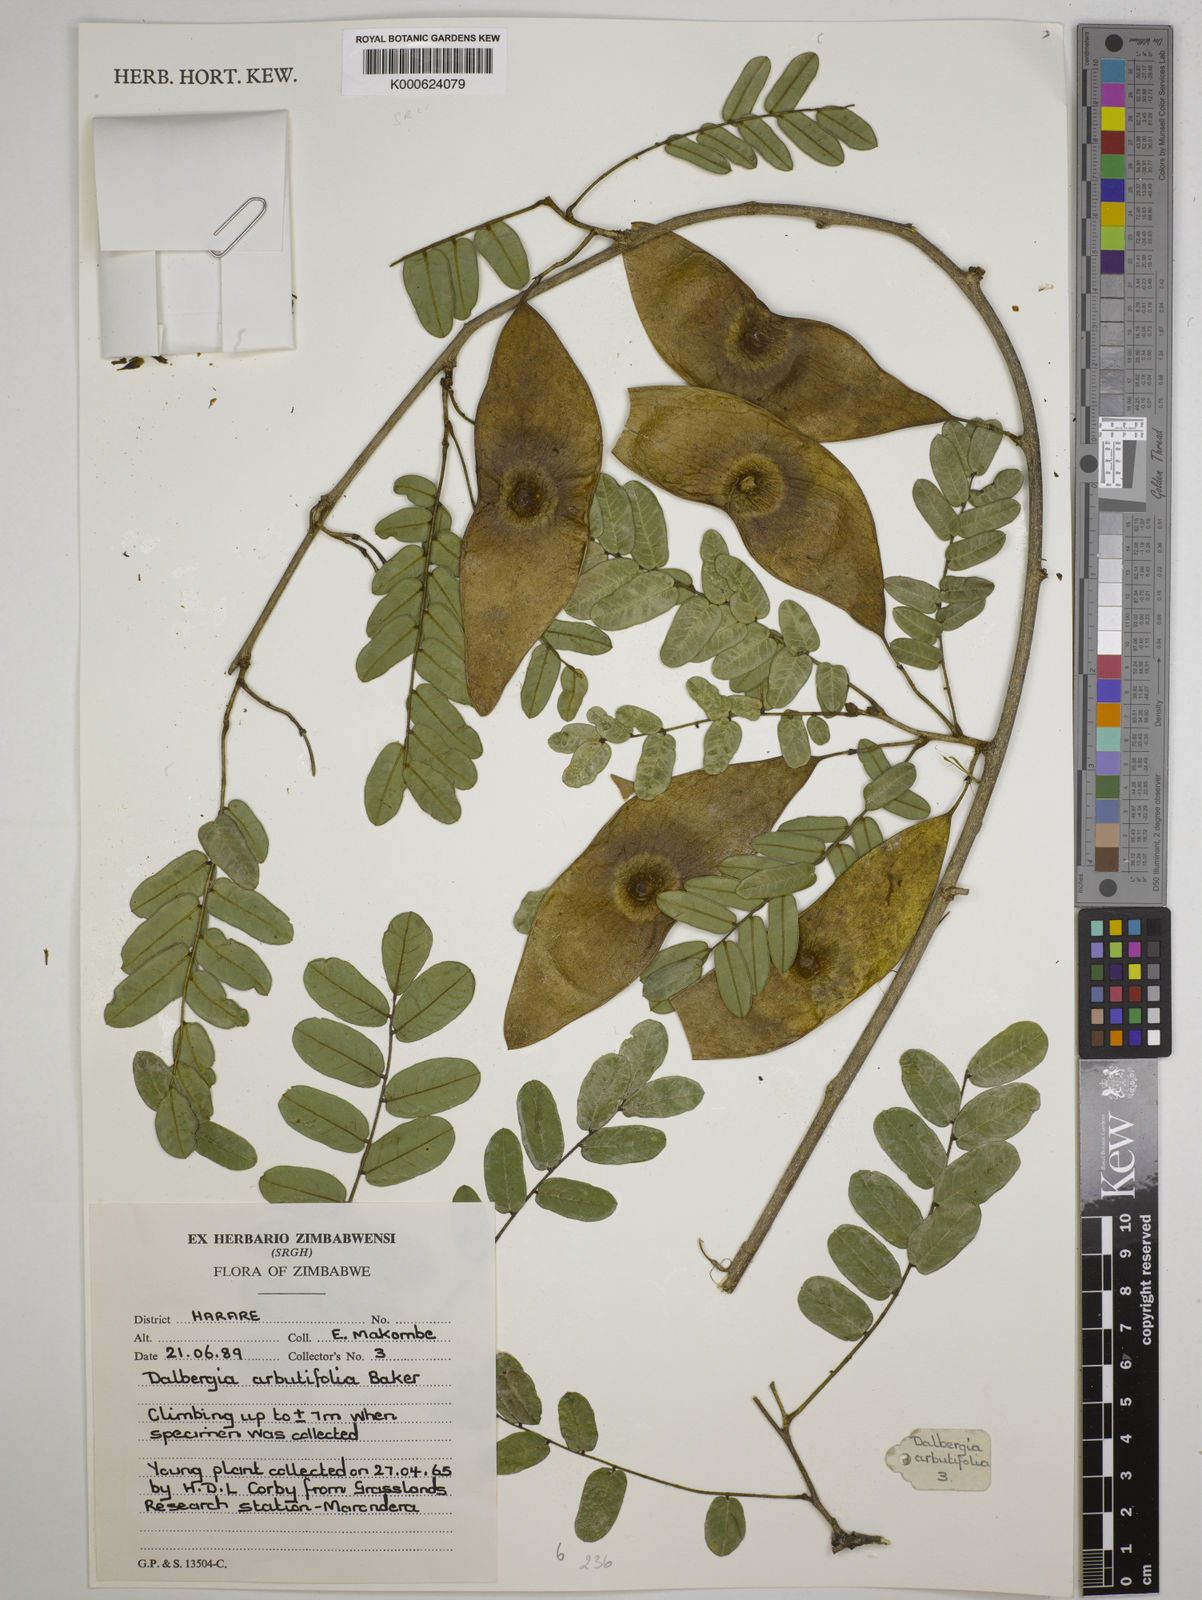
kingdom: Plantae
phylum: Tracheophyta
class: Magnoliopsida
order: Fabales
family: Fabaceae
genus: Dalbergia
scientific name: Dalbergia arbutifolia
